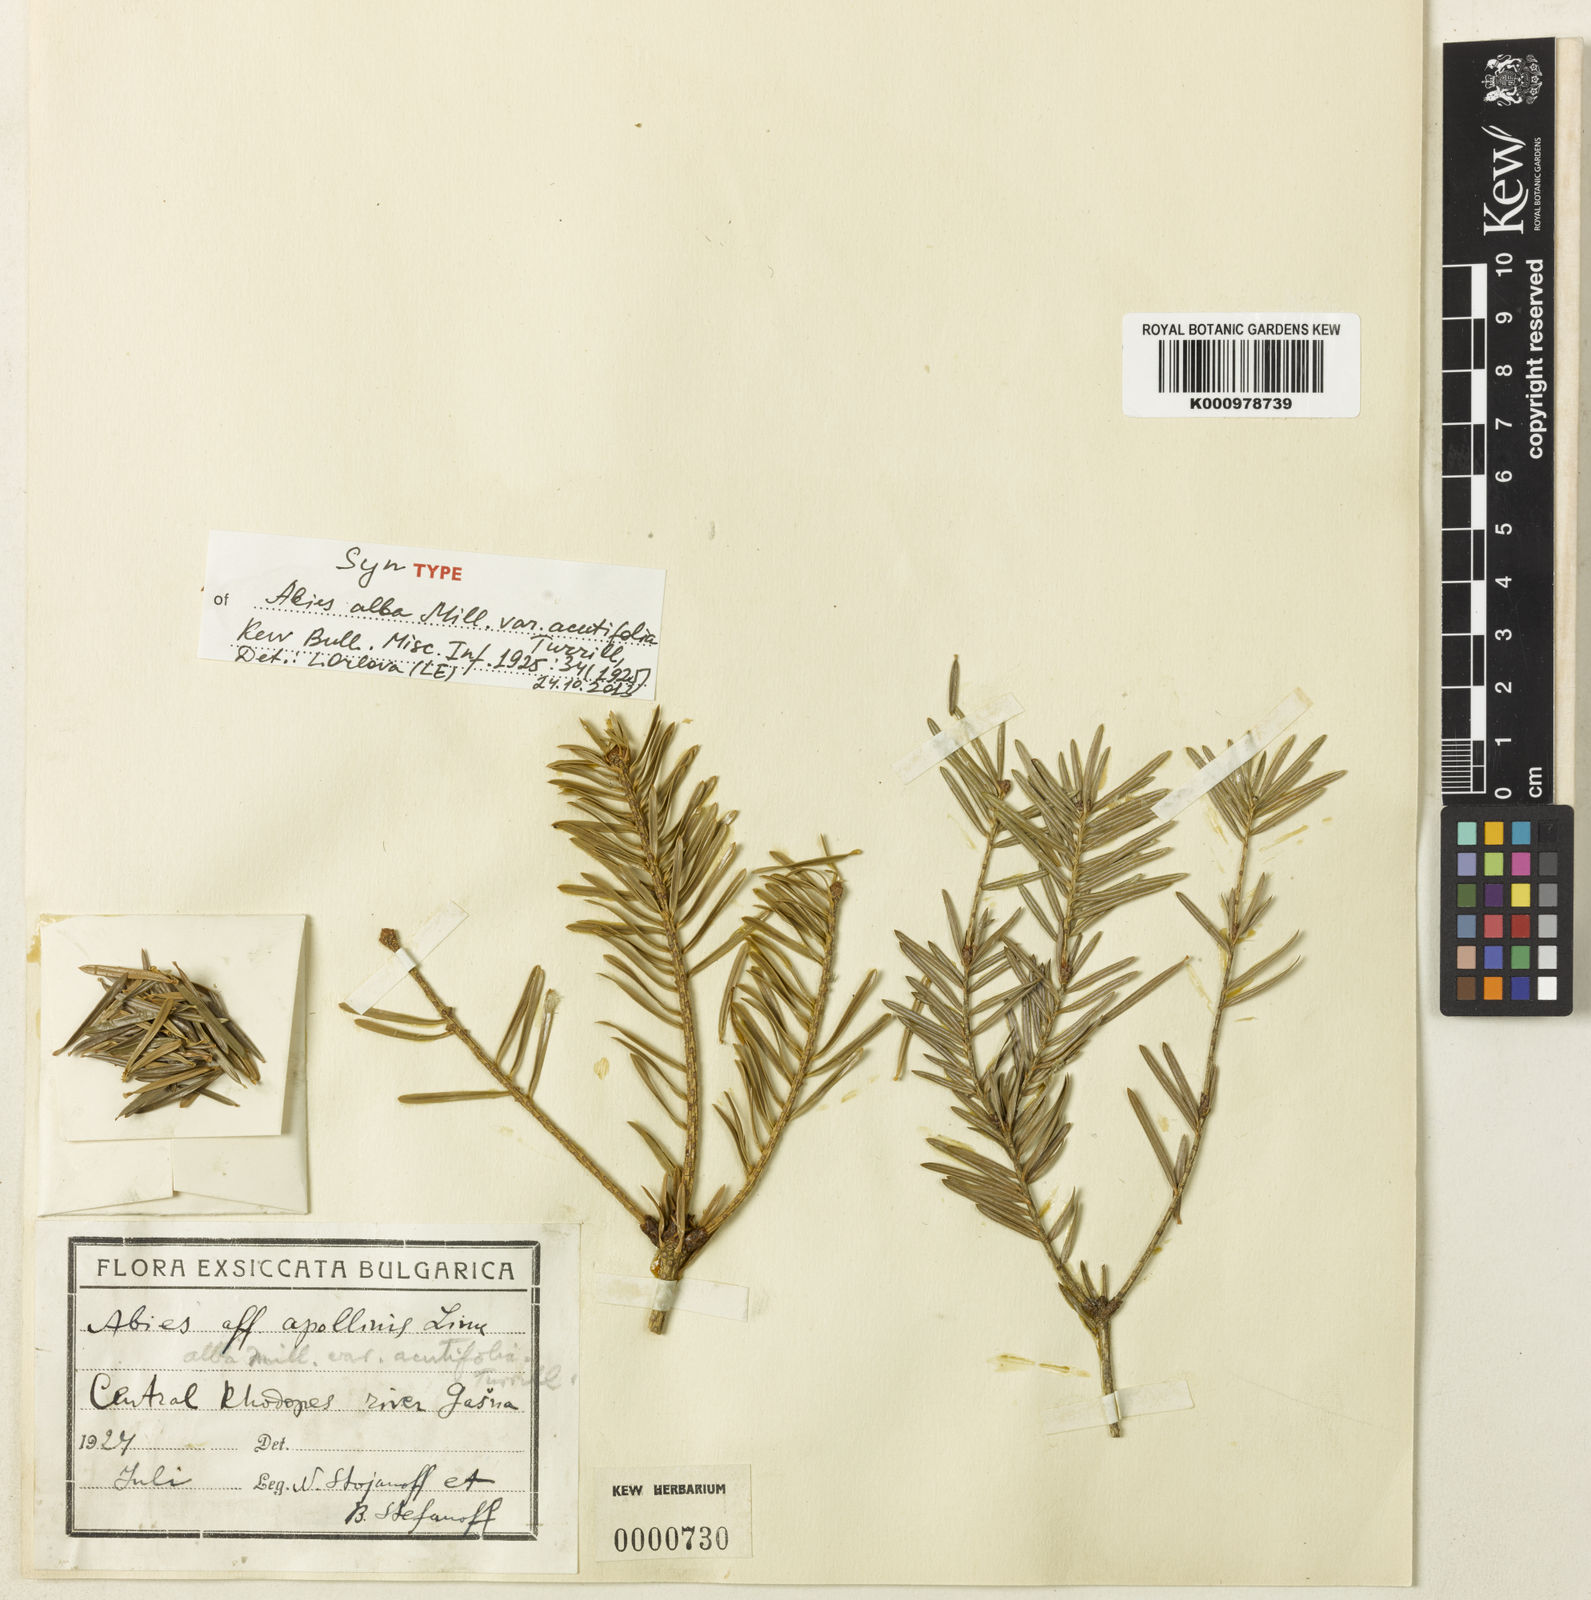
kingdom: Plantae
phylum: Tracheophyta
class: Pinopsida
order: Pinales
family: Pinaceae
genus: Abies
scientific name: Abies alba
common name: Silver fir
